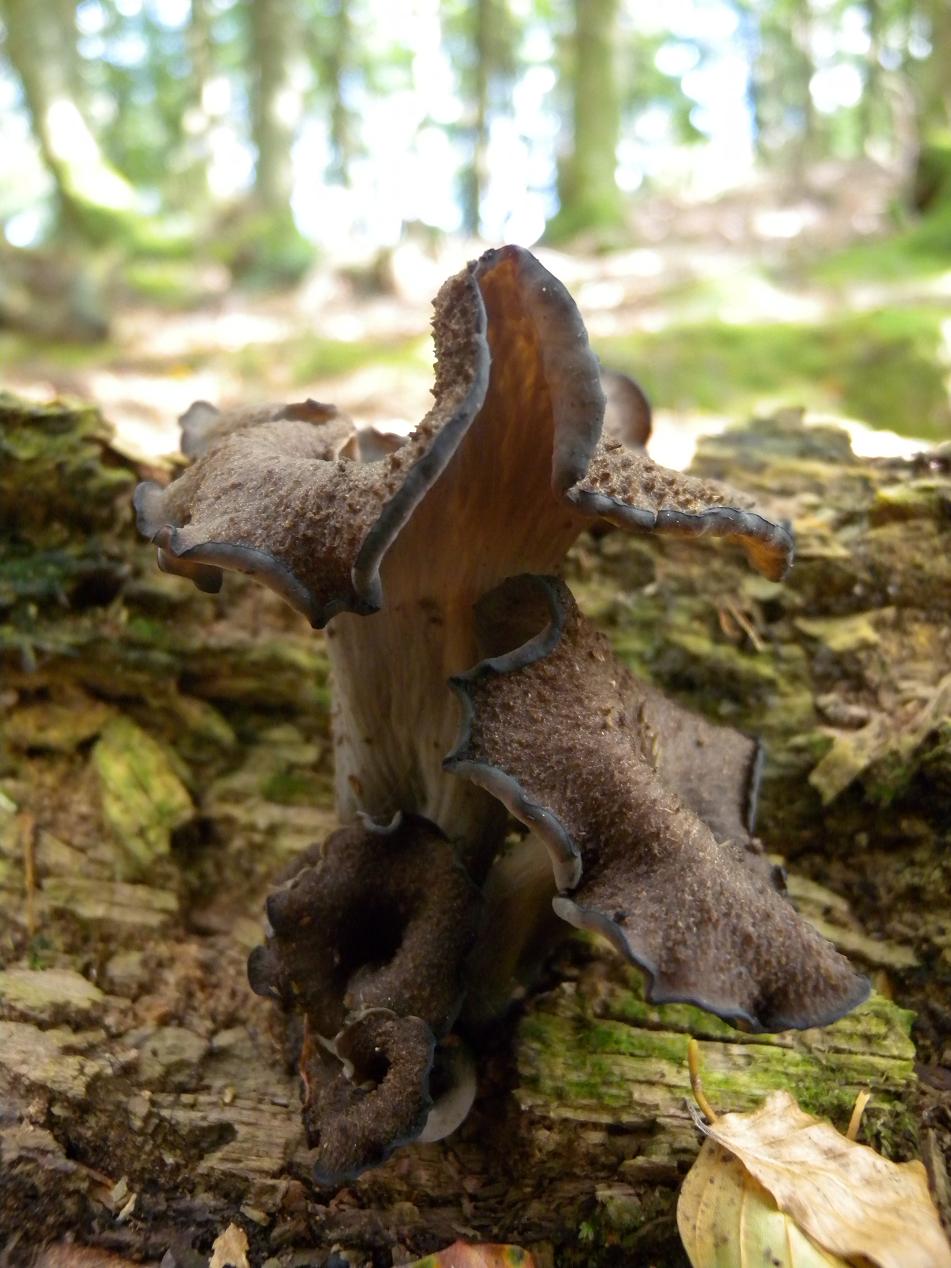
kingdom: Fungi
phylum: Basidiomycota
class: Agaricomycetes
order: Cantharellales
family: Hydnaceae
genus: Craterellus
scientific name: Craterellus cornucopioides
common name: trompetsvamp
